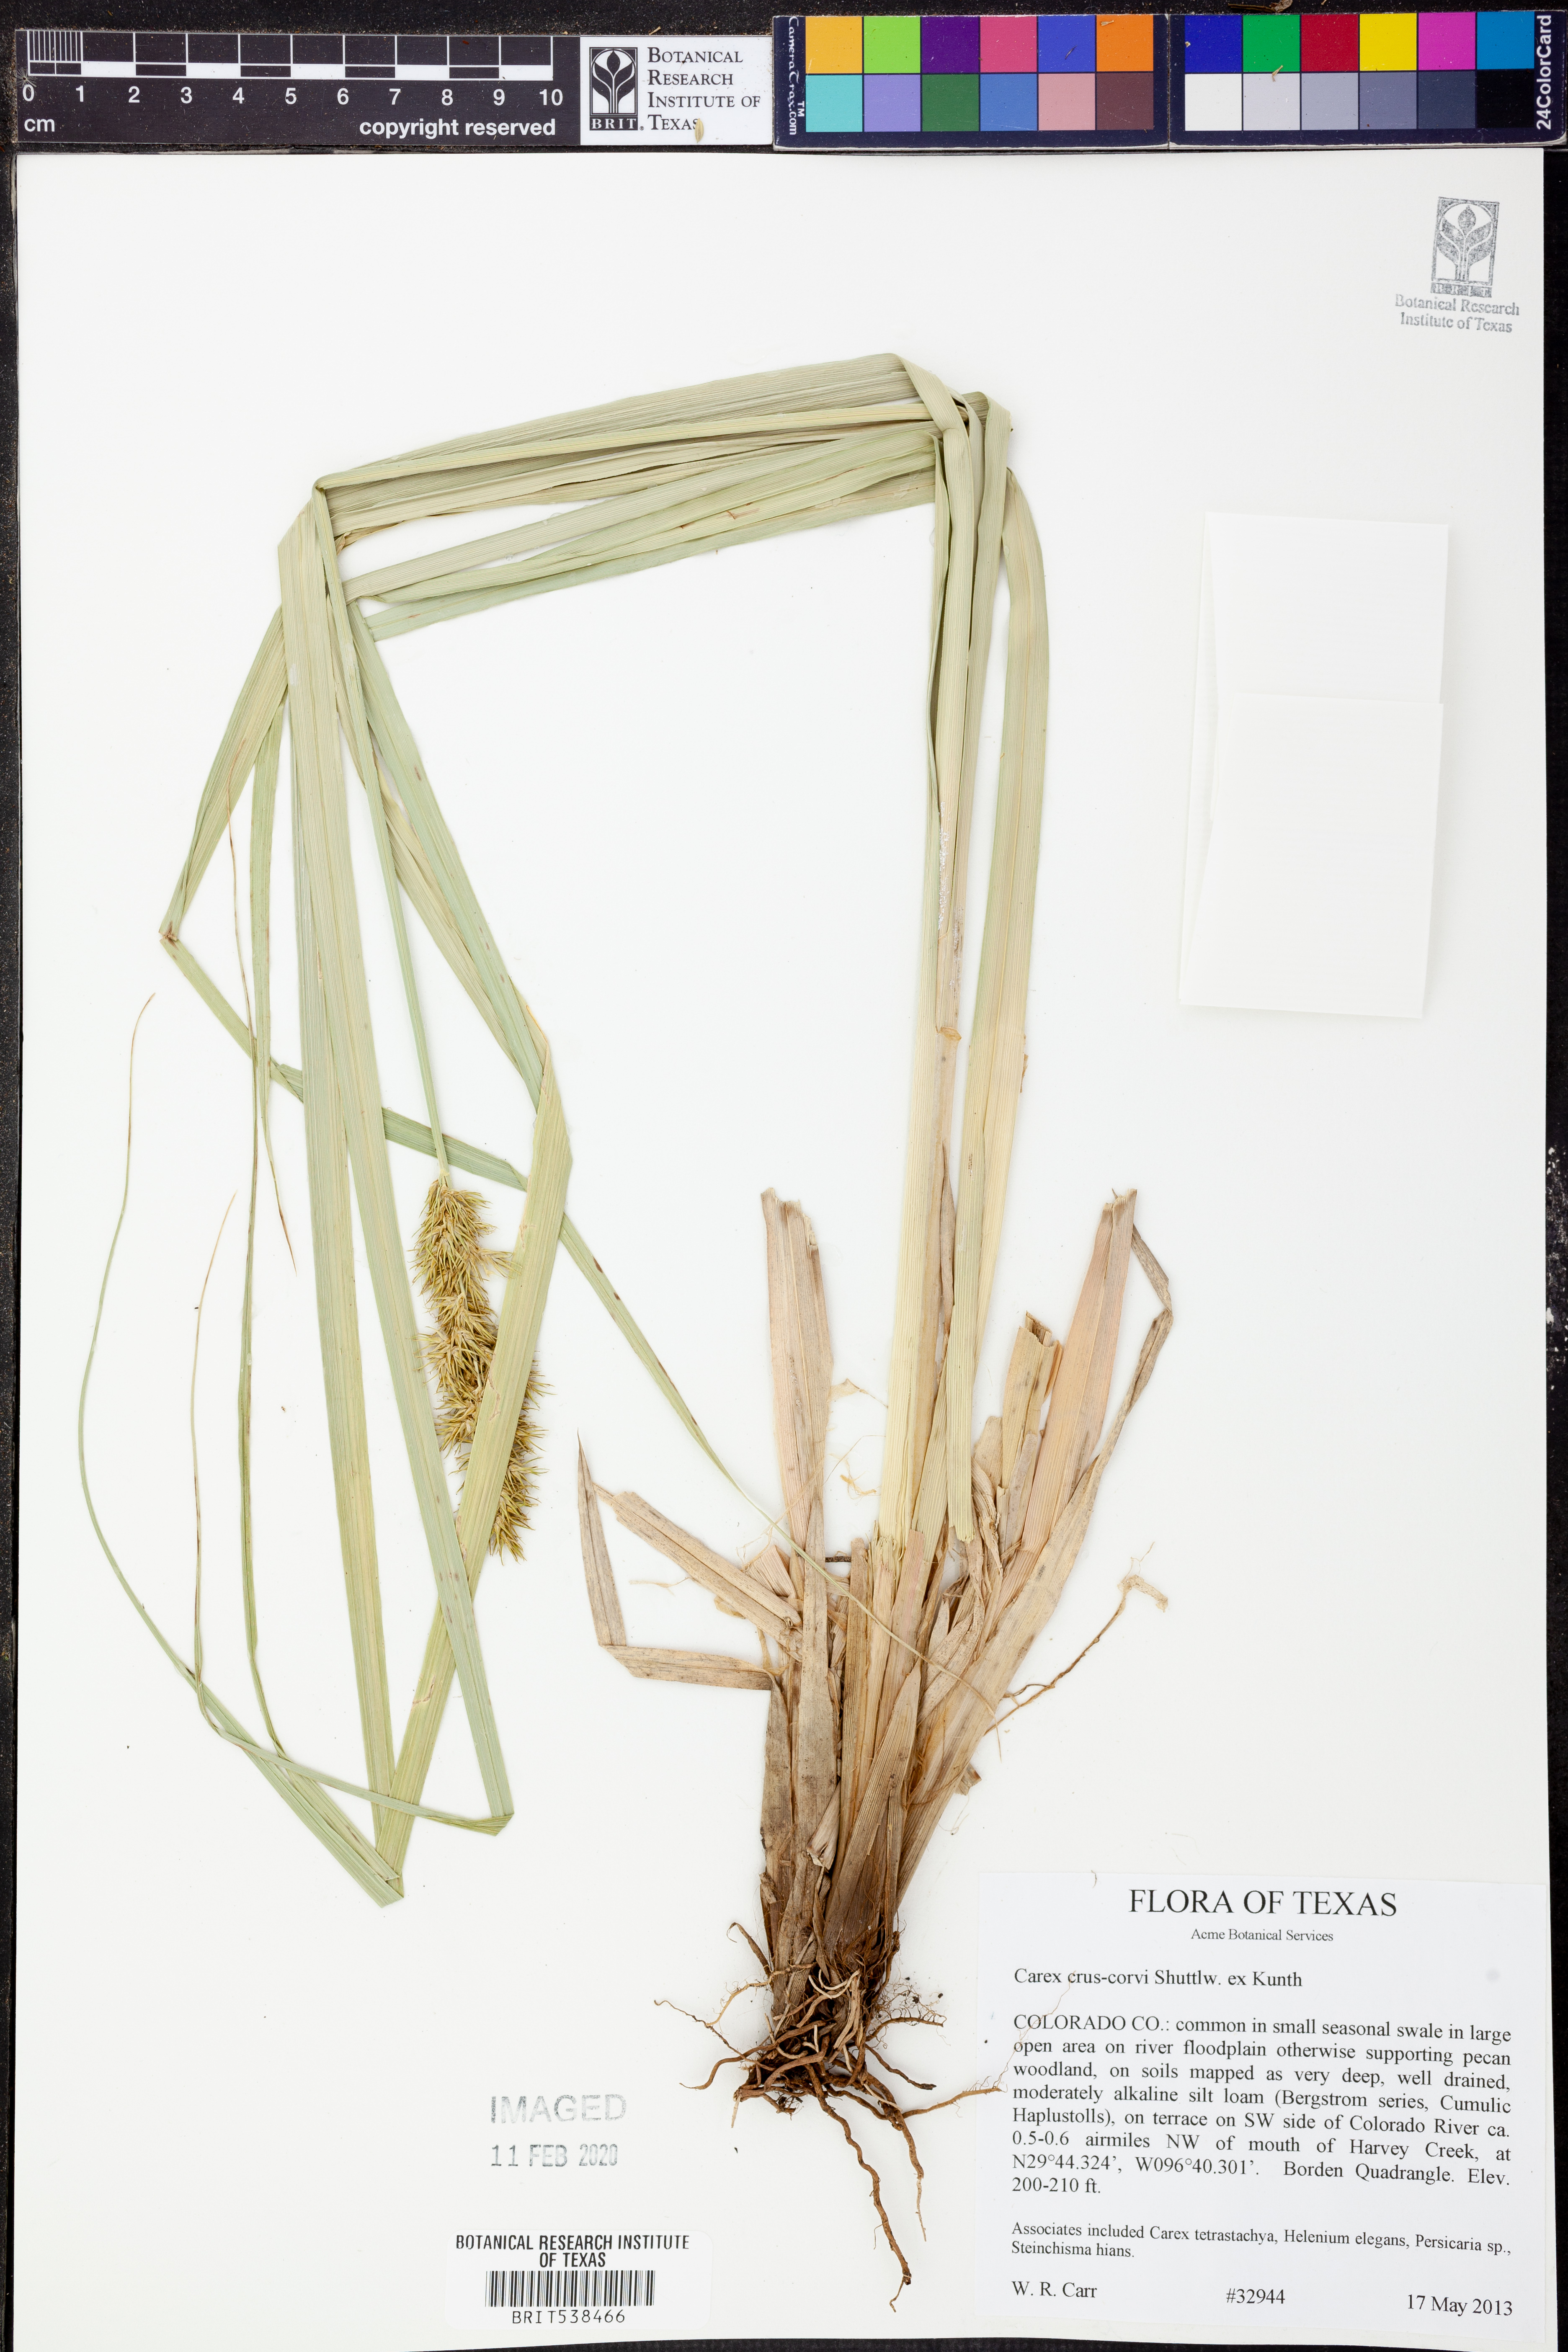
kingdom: Plantae
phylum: Tracheophyta
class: Liliopsida
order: Poales
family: Cyperaceae
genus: Carex
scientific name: Carex crus-corvi
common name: Crow-spur sedge
